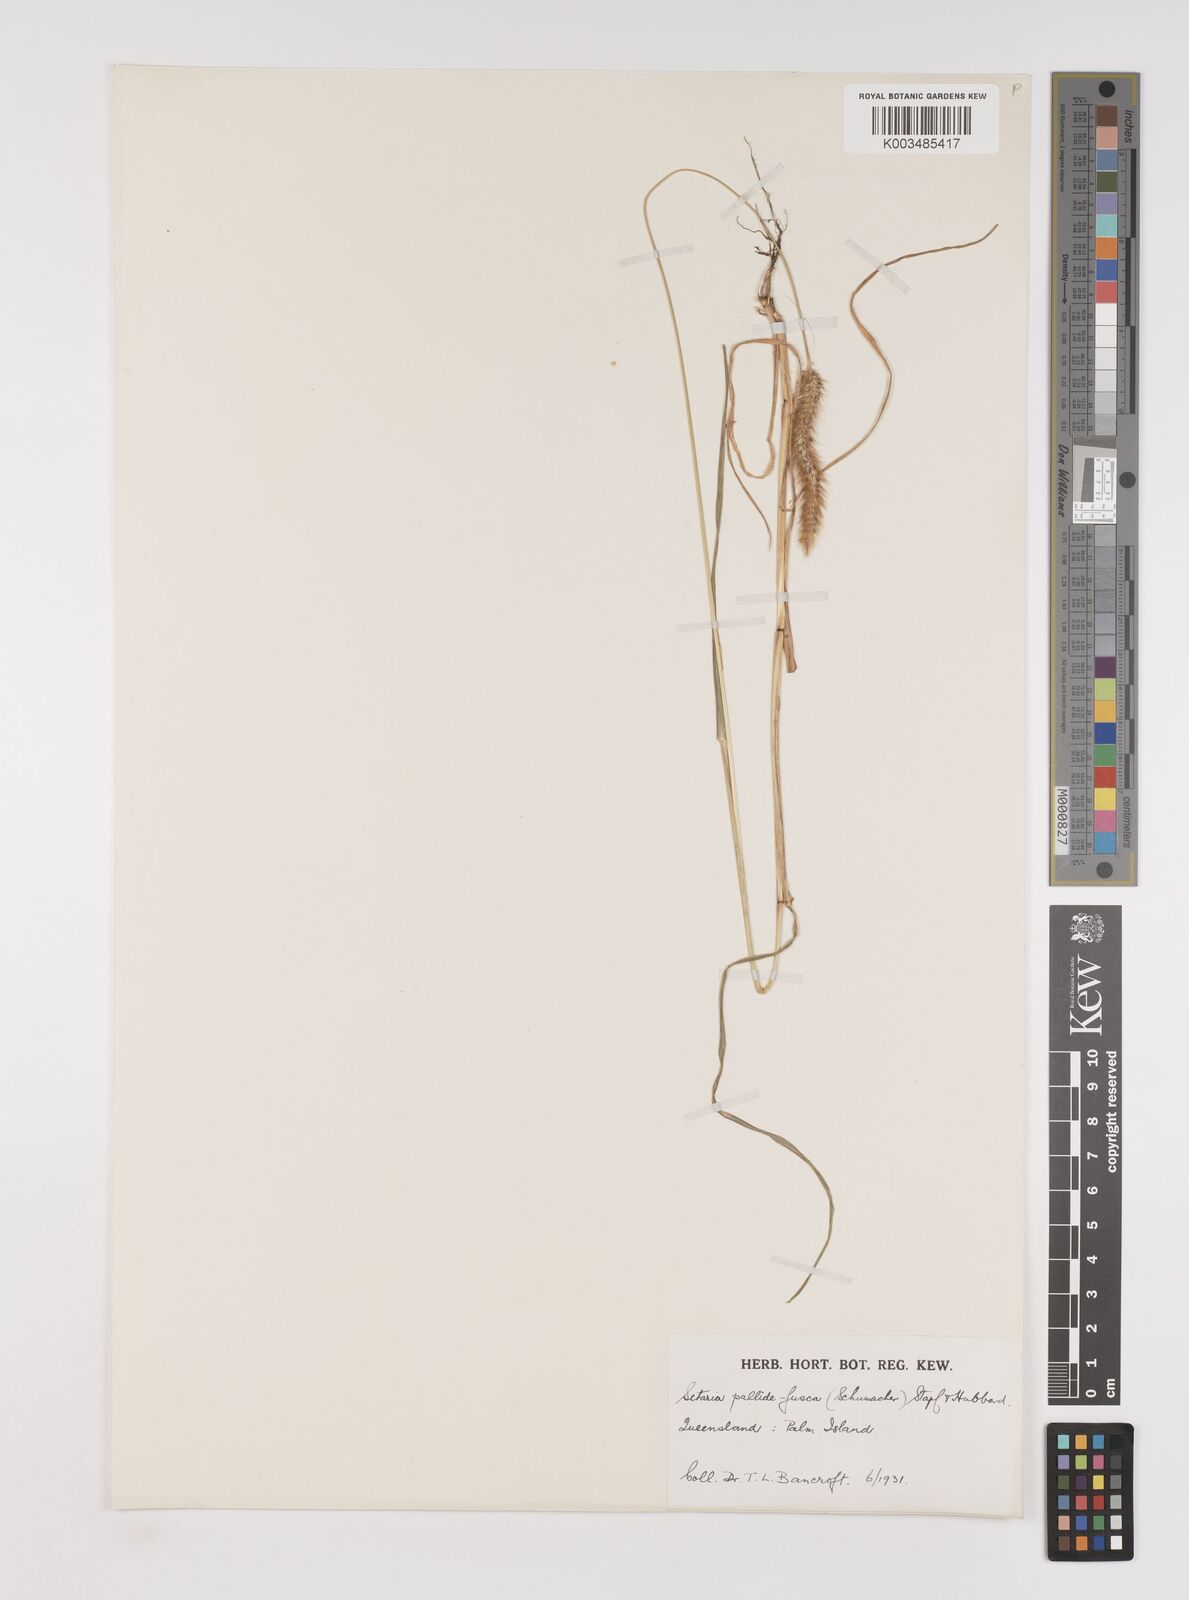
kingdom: Plantae
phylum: Tracheophyta
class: Liliopsida
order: Poales
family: Poaceae
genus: Setaria
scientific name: Setaria pumila
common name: Yellow bristle-grass
